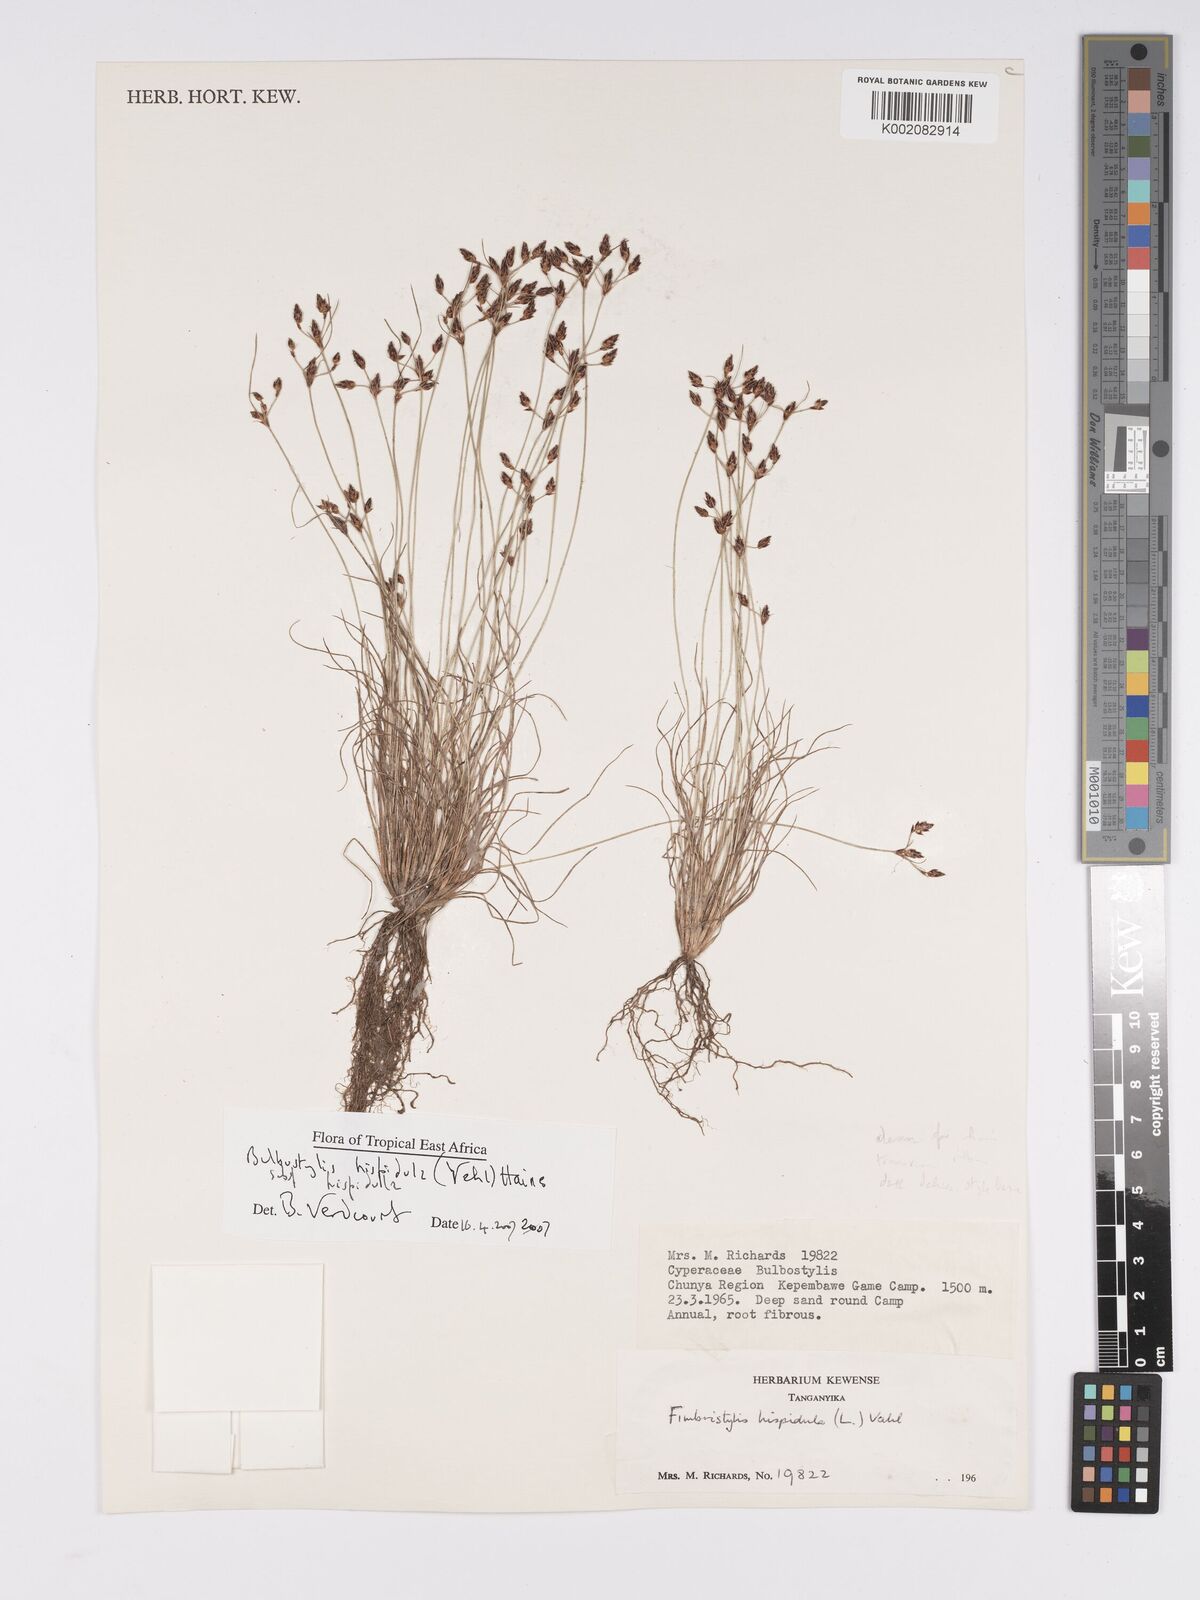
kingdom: Plantae
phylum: Tracheophyta
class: Liliopsida
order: Poales
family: Cyperaceae
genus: Bulbostylis
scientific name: Bulbostylis hispidula
